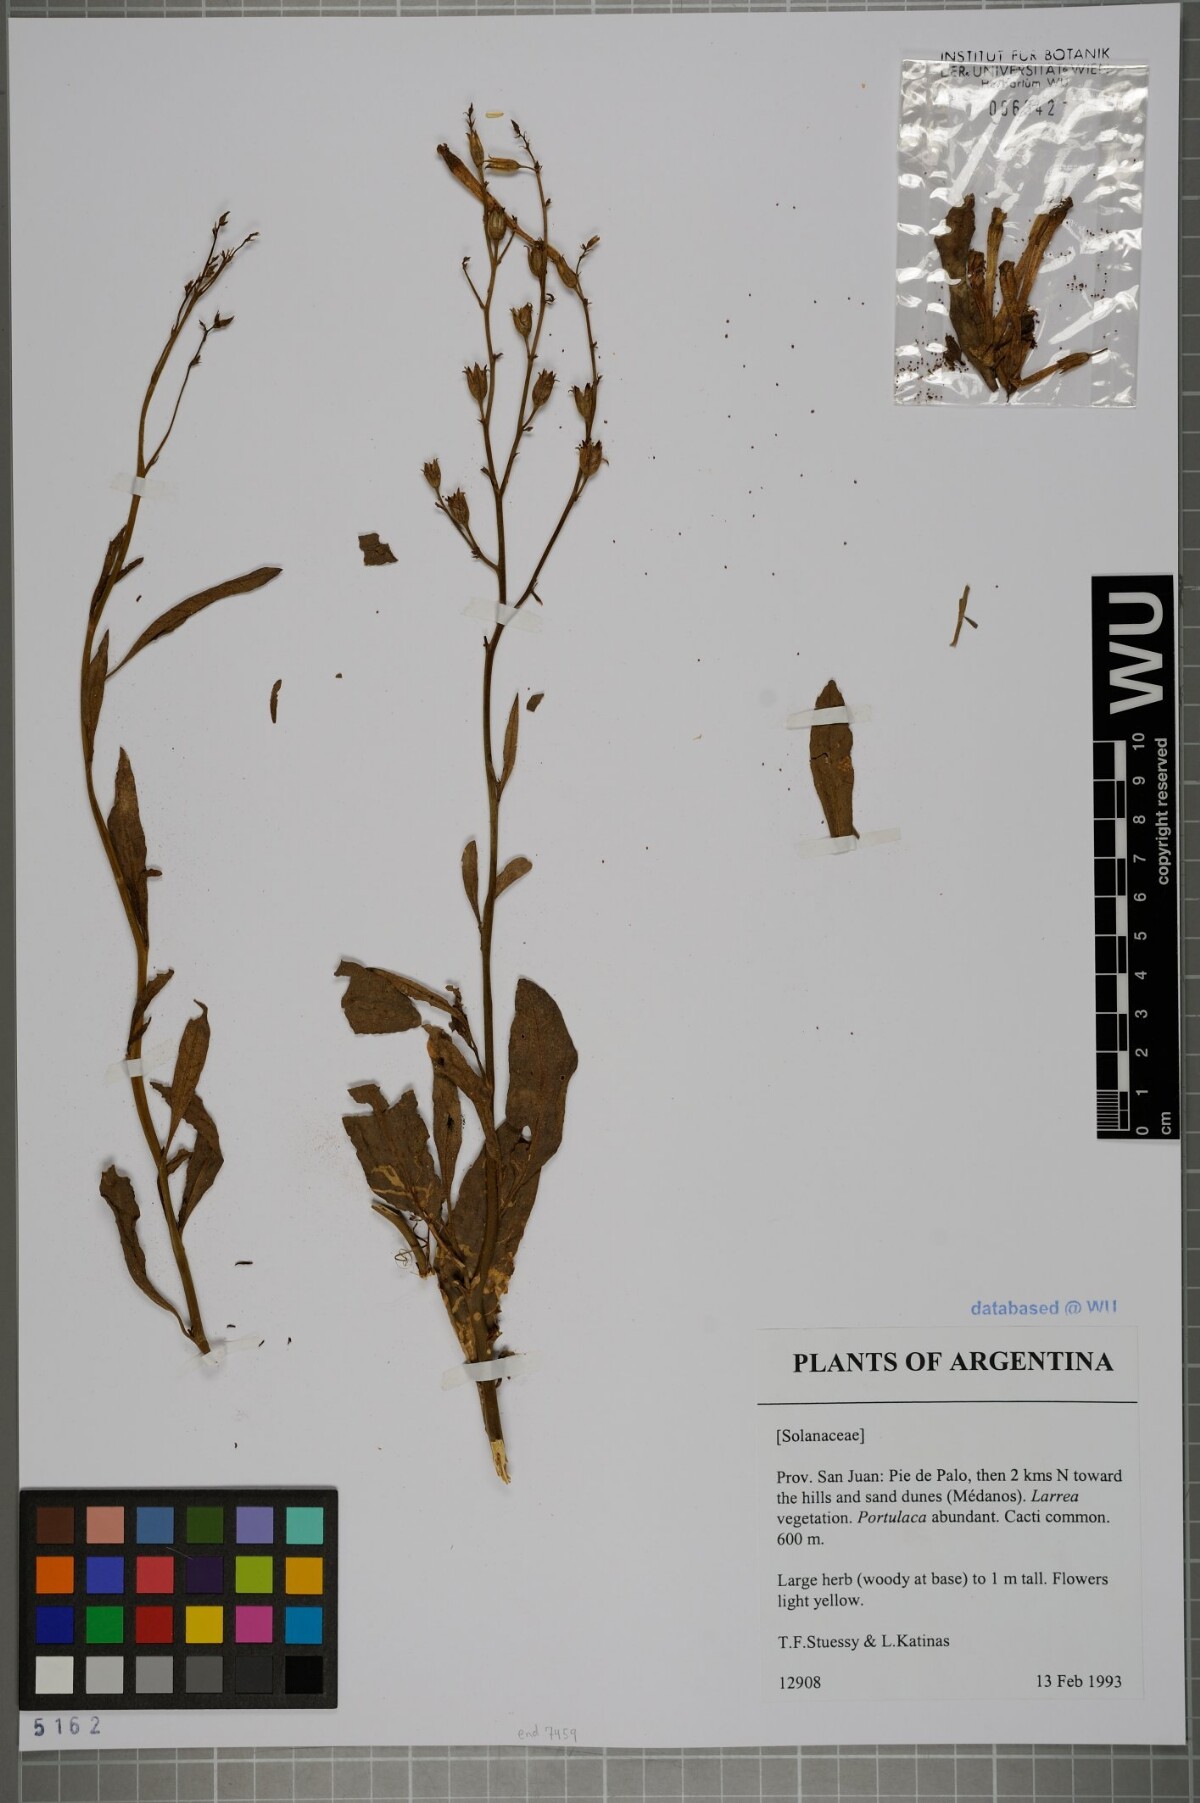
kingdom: Plantae
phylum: Tracheophyta
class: Magnoliopsida
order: Solanales
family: Solanaceae
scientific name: Solanaceae
